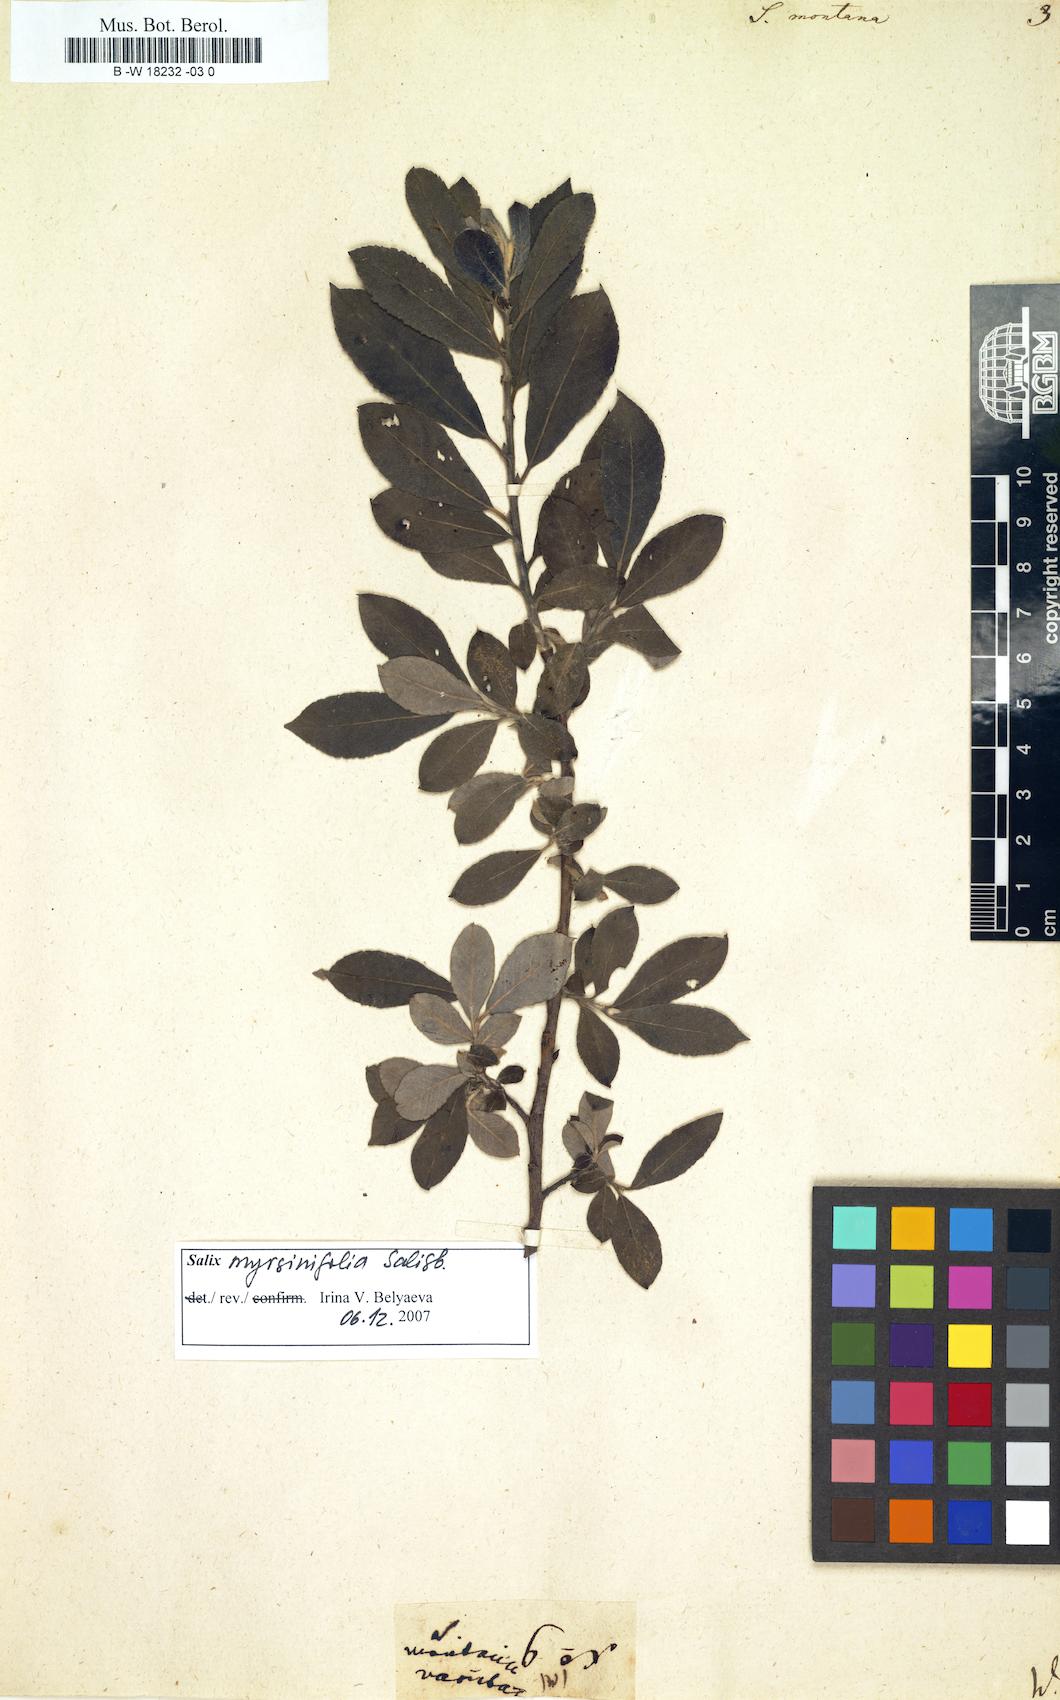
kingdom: Plantae
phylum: Tracheophyta
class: Magnoliopsida
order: Malpighiales
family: Salicaceae
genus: Salix
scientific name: Salix montana
